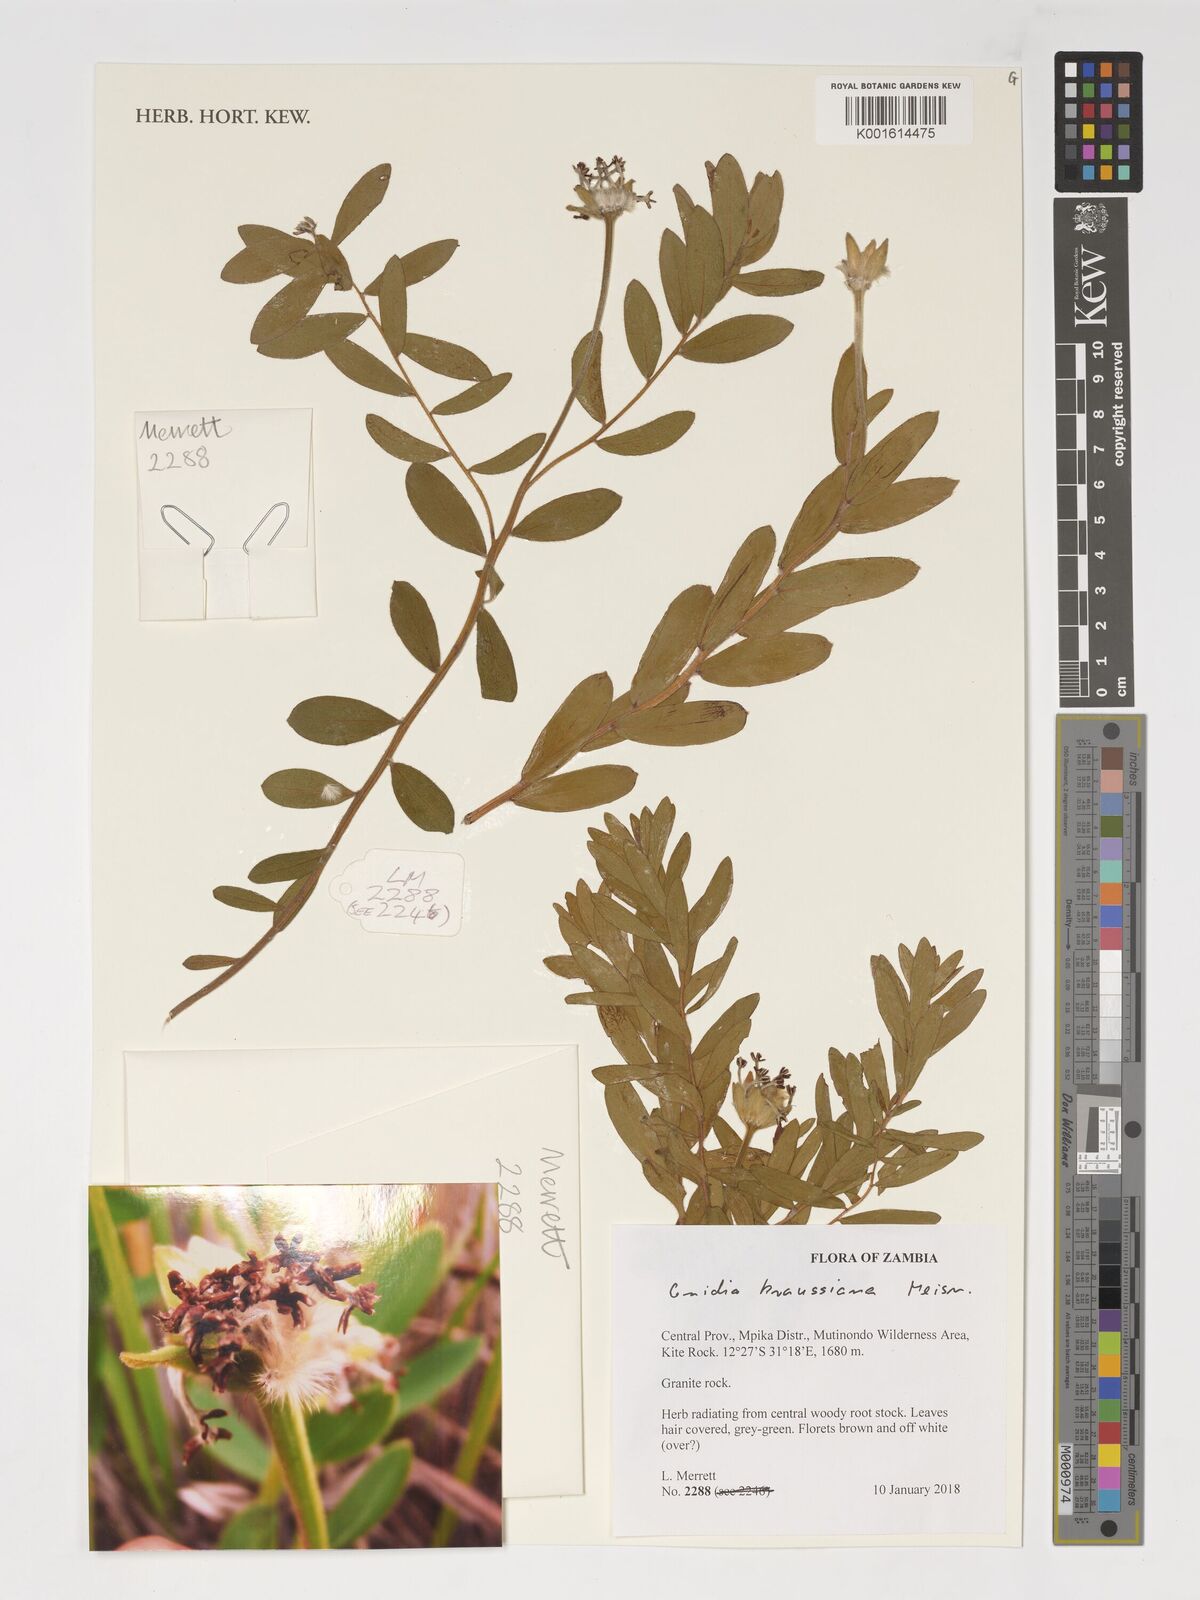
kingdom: Plantae
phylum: Tracheophyta
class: Magnoliopsida
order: Malvales
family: Thymelaeaceae
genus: Gnidia
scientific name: Gnidia kraussiana
